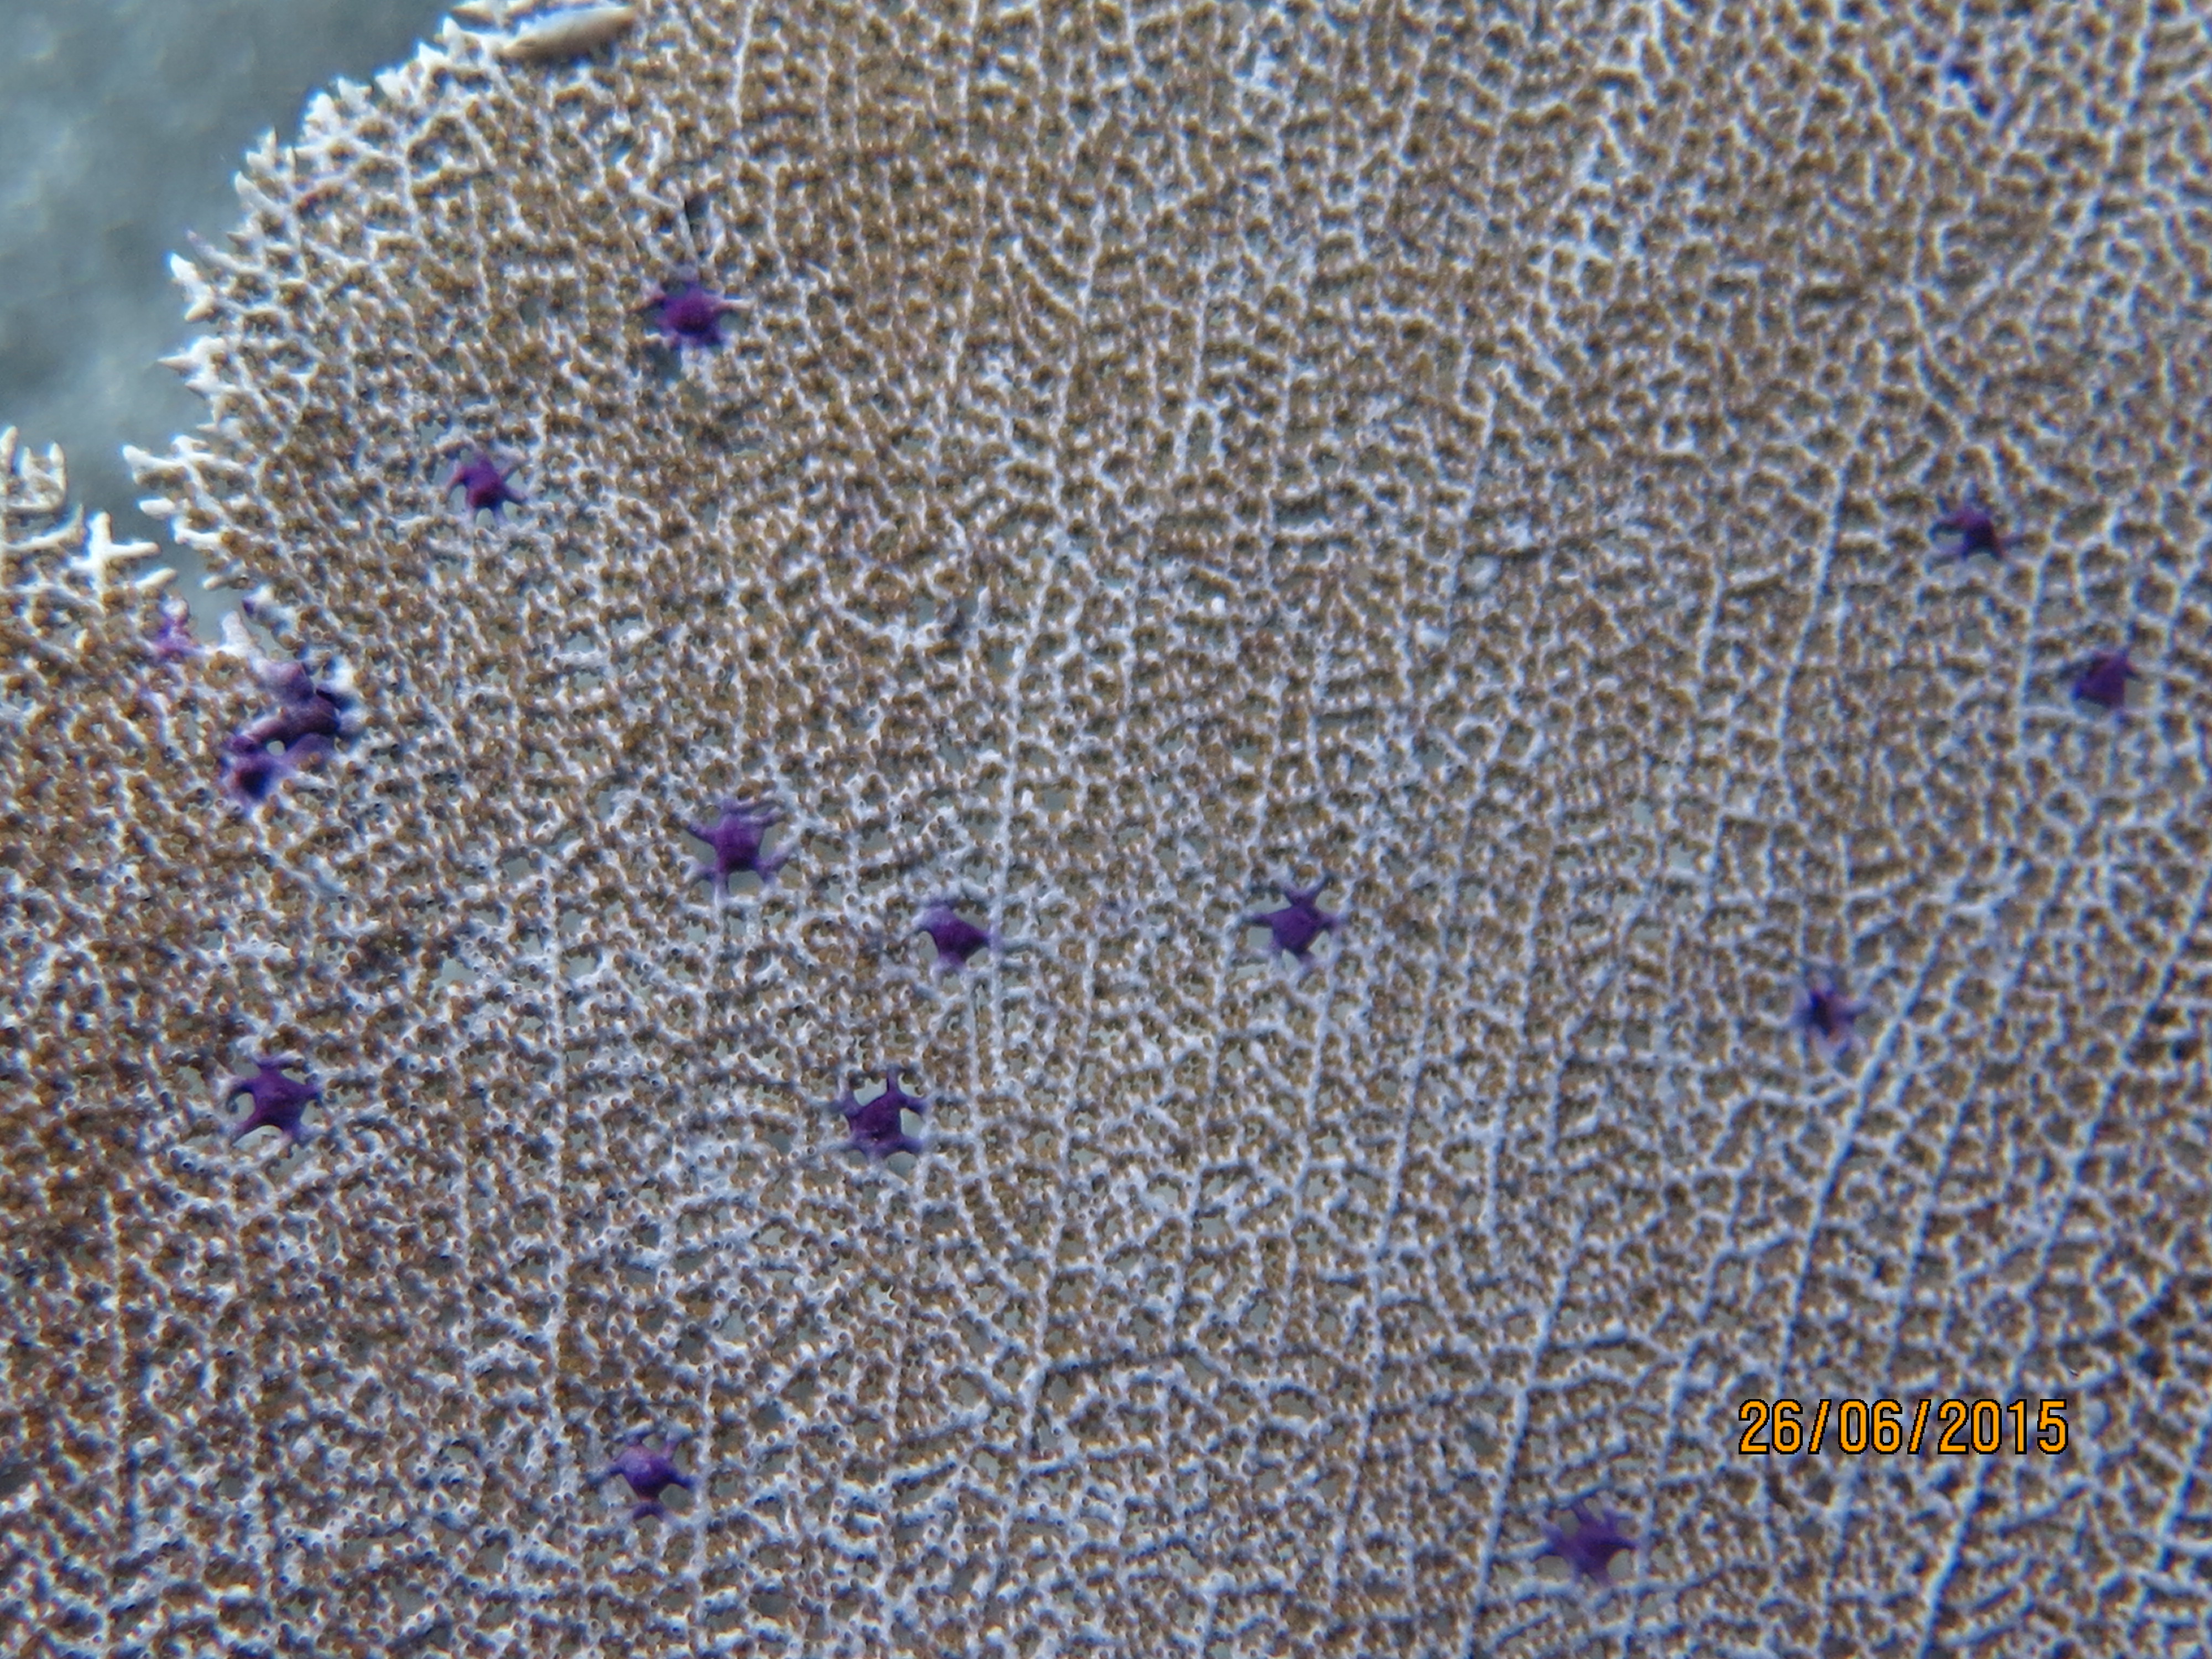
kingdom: Animalia
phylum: Cnidaria
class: Anthozoa
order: Malacalcyonacea
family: Gorgoniidae
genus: Gorgonia
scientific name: Gorgonia ventalina
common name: Common sea fan
